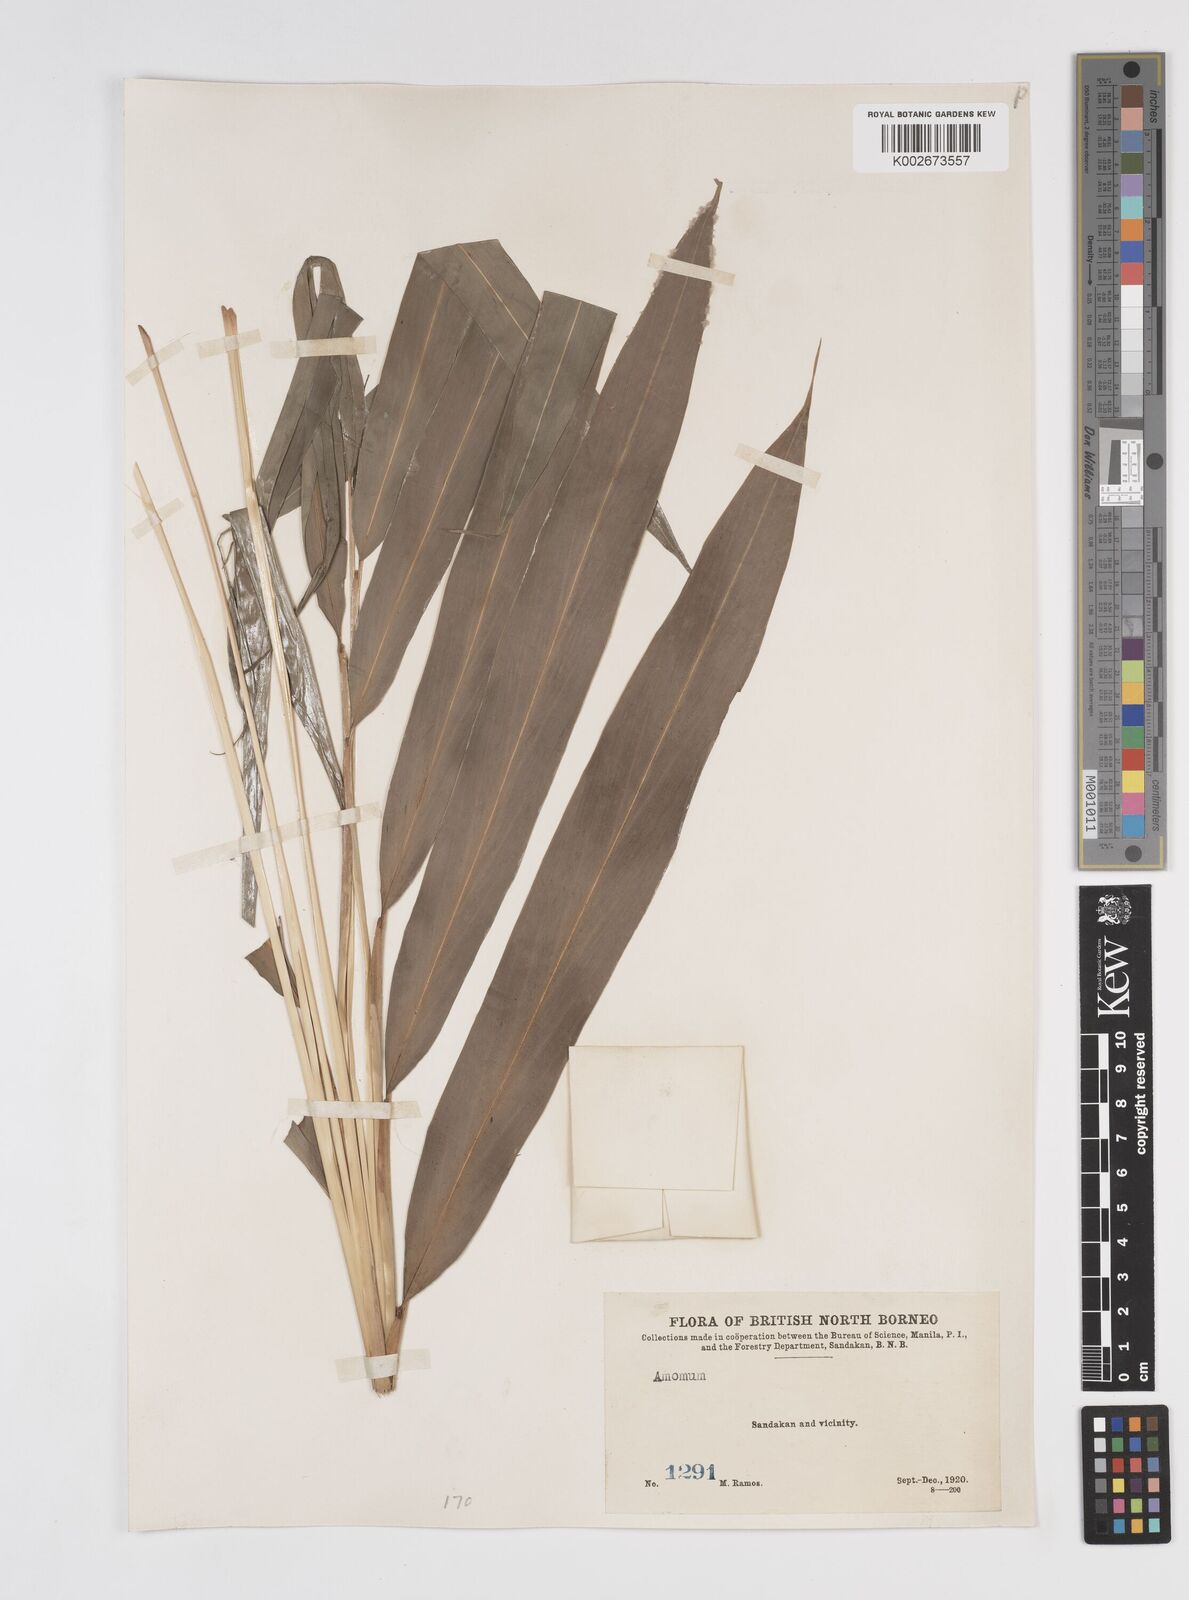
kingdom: Plantae
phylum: Tracheophyta
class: Liliopsida
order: Zingiberales
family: Zingiberaceae
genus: Amomum
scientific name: Amomum
